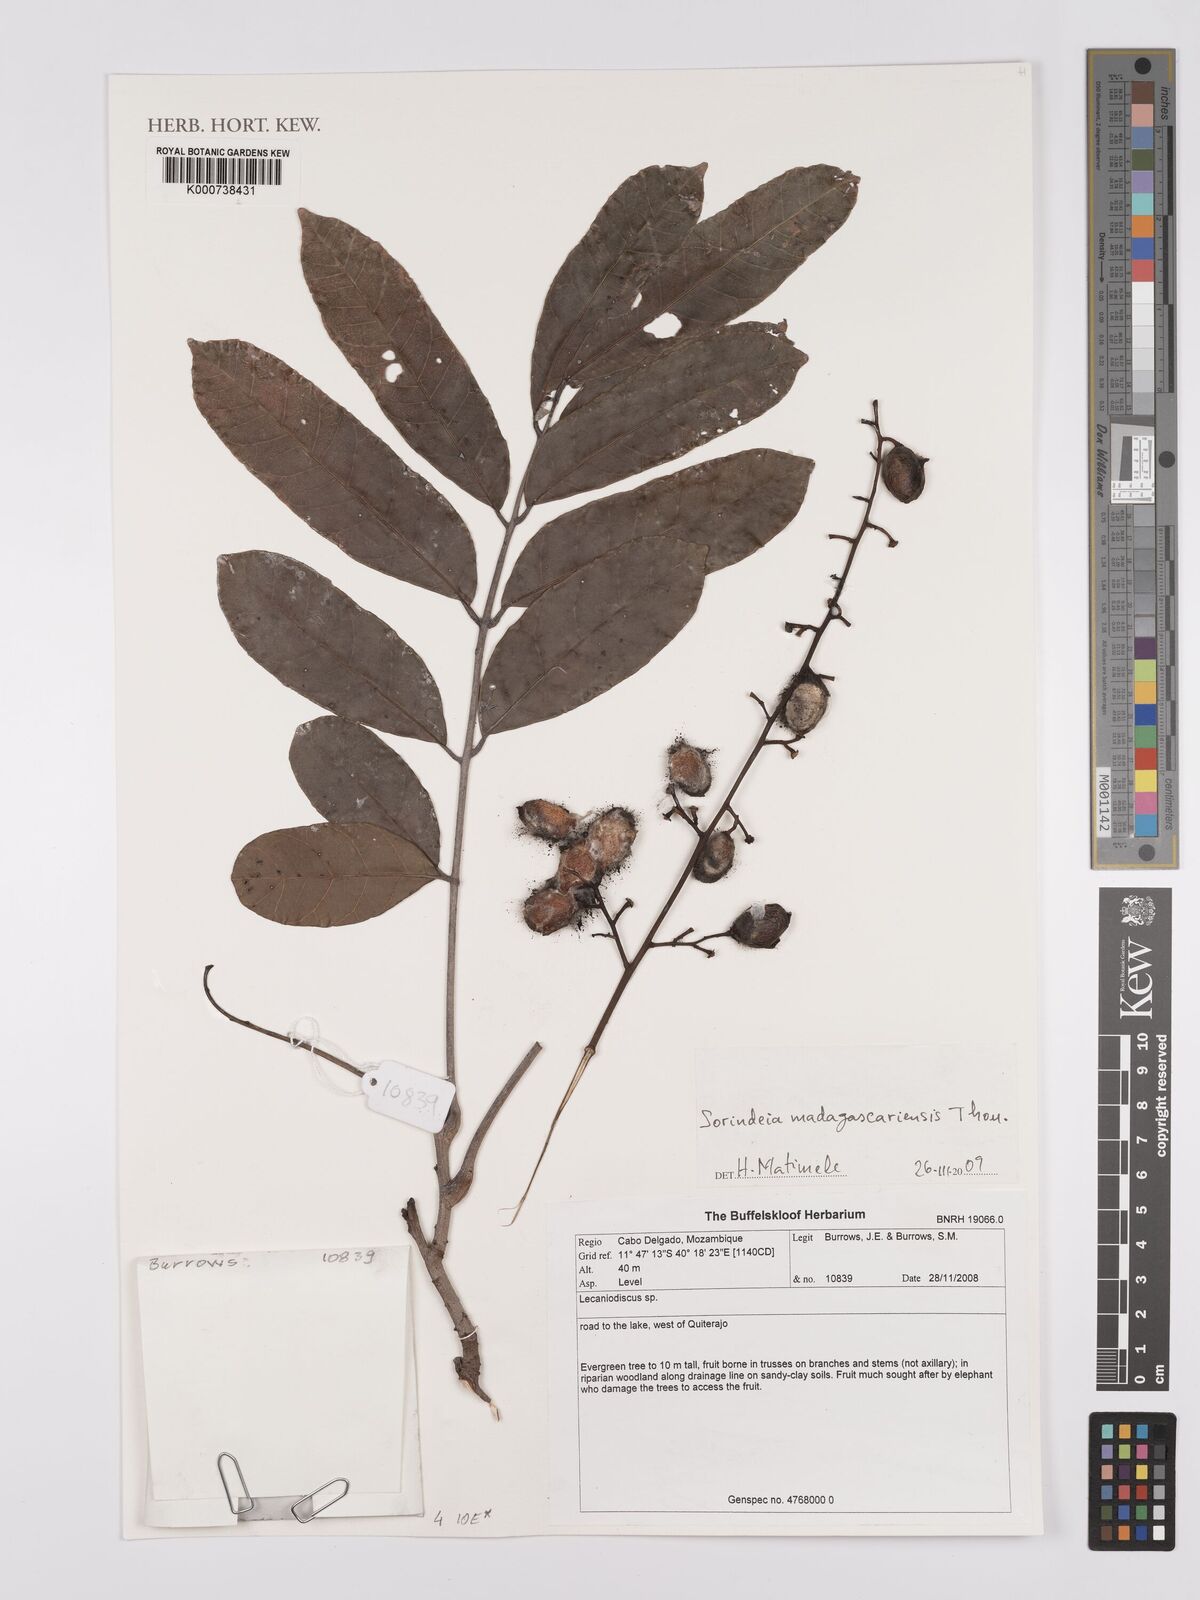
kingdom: Plantae
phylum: Tracheophyta
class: Magnoliopsida
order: Sapindales
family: Anacardiaceae
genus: Sorindeia
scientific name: Sorindeia madagascariensis
